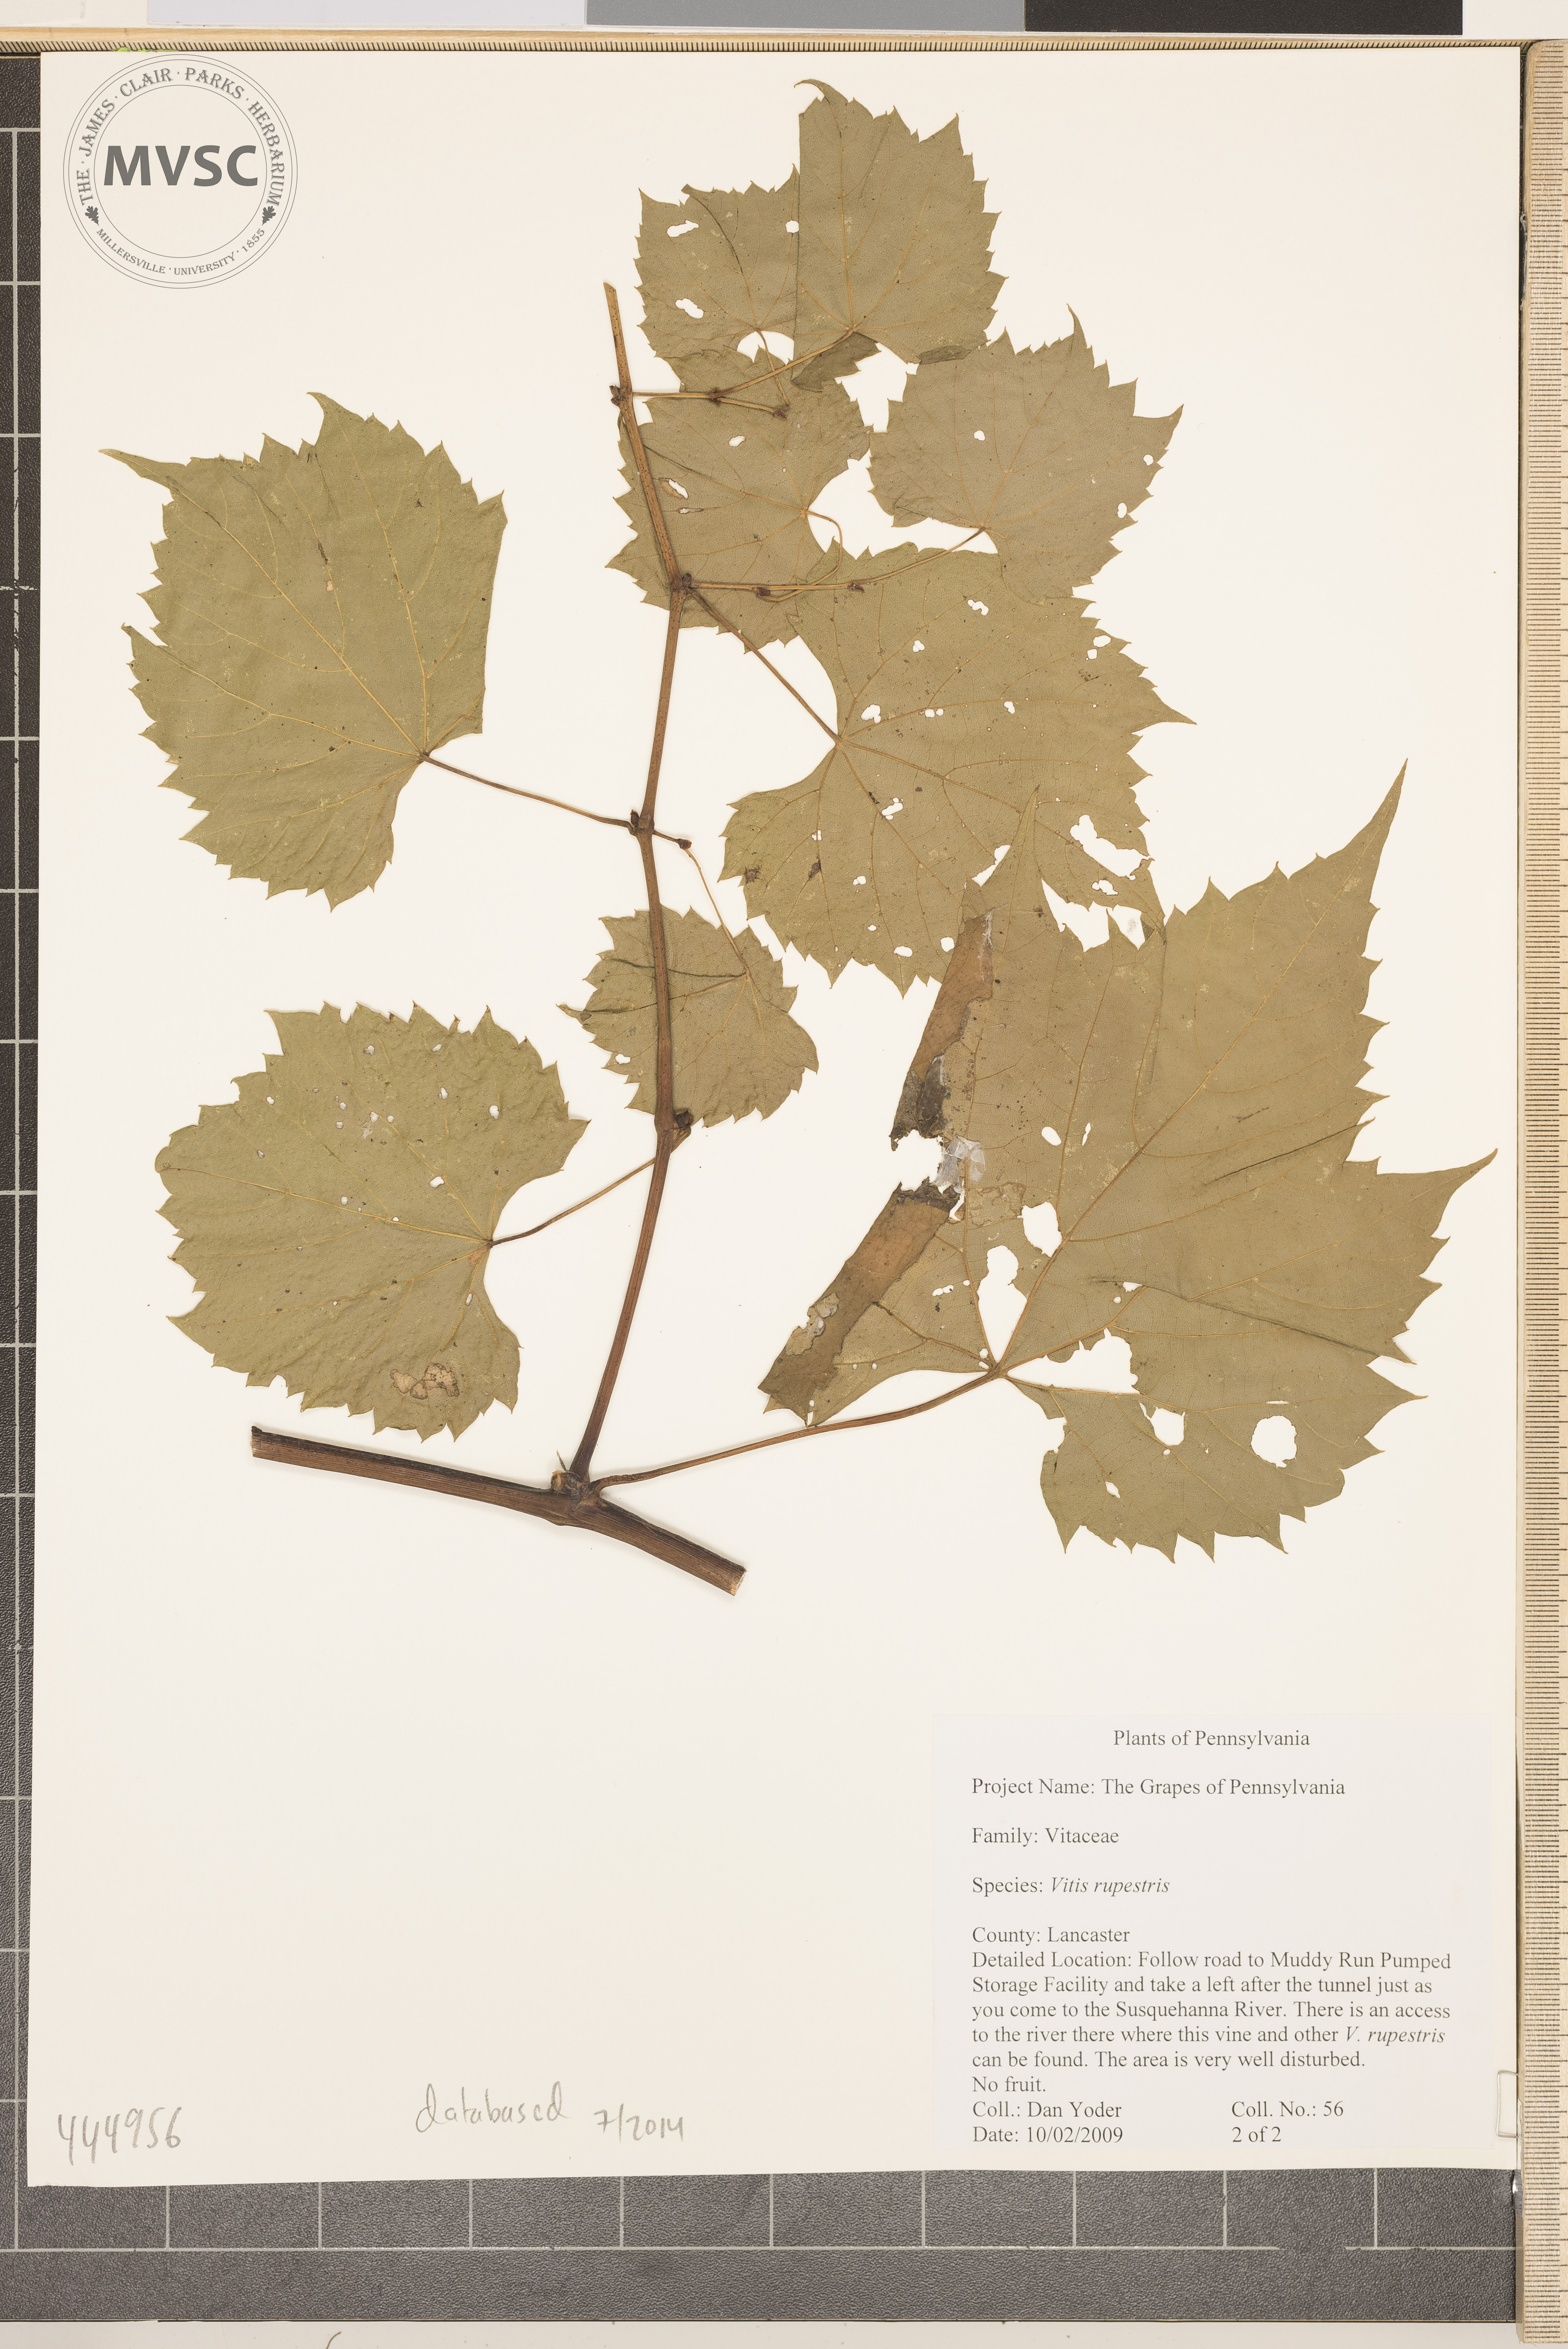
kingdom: Plantae
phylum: Tracheophyta
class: Magnoliopsida
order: Vitales
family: Vitaceae
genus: Vitis
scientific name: Vitis riparia
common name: Frost grape
